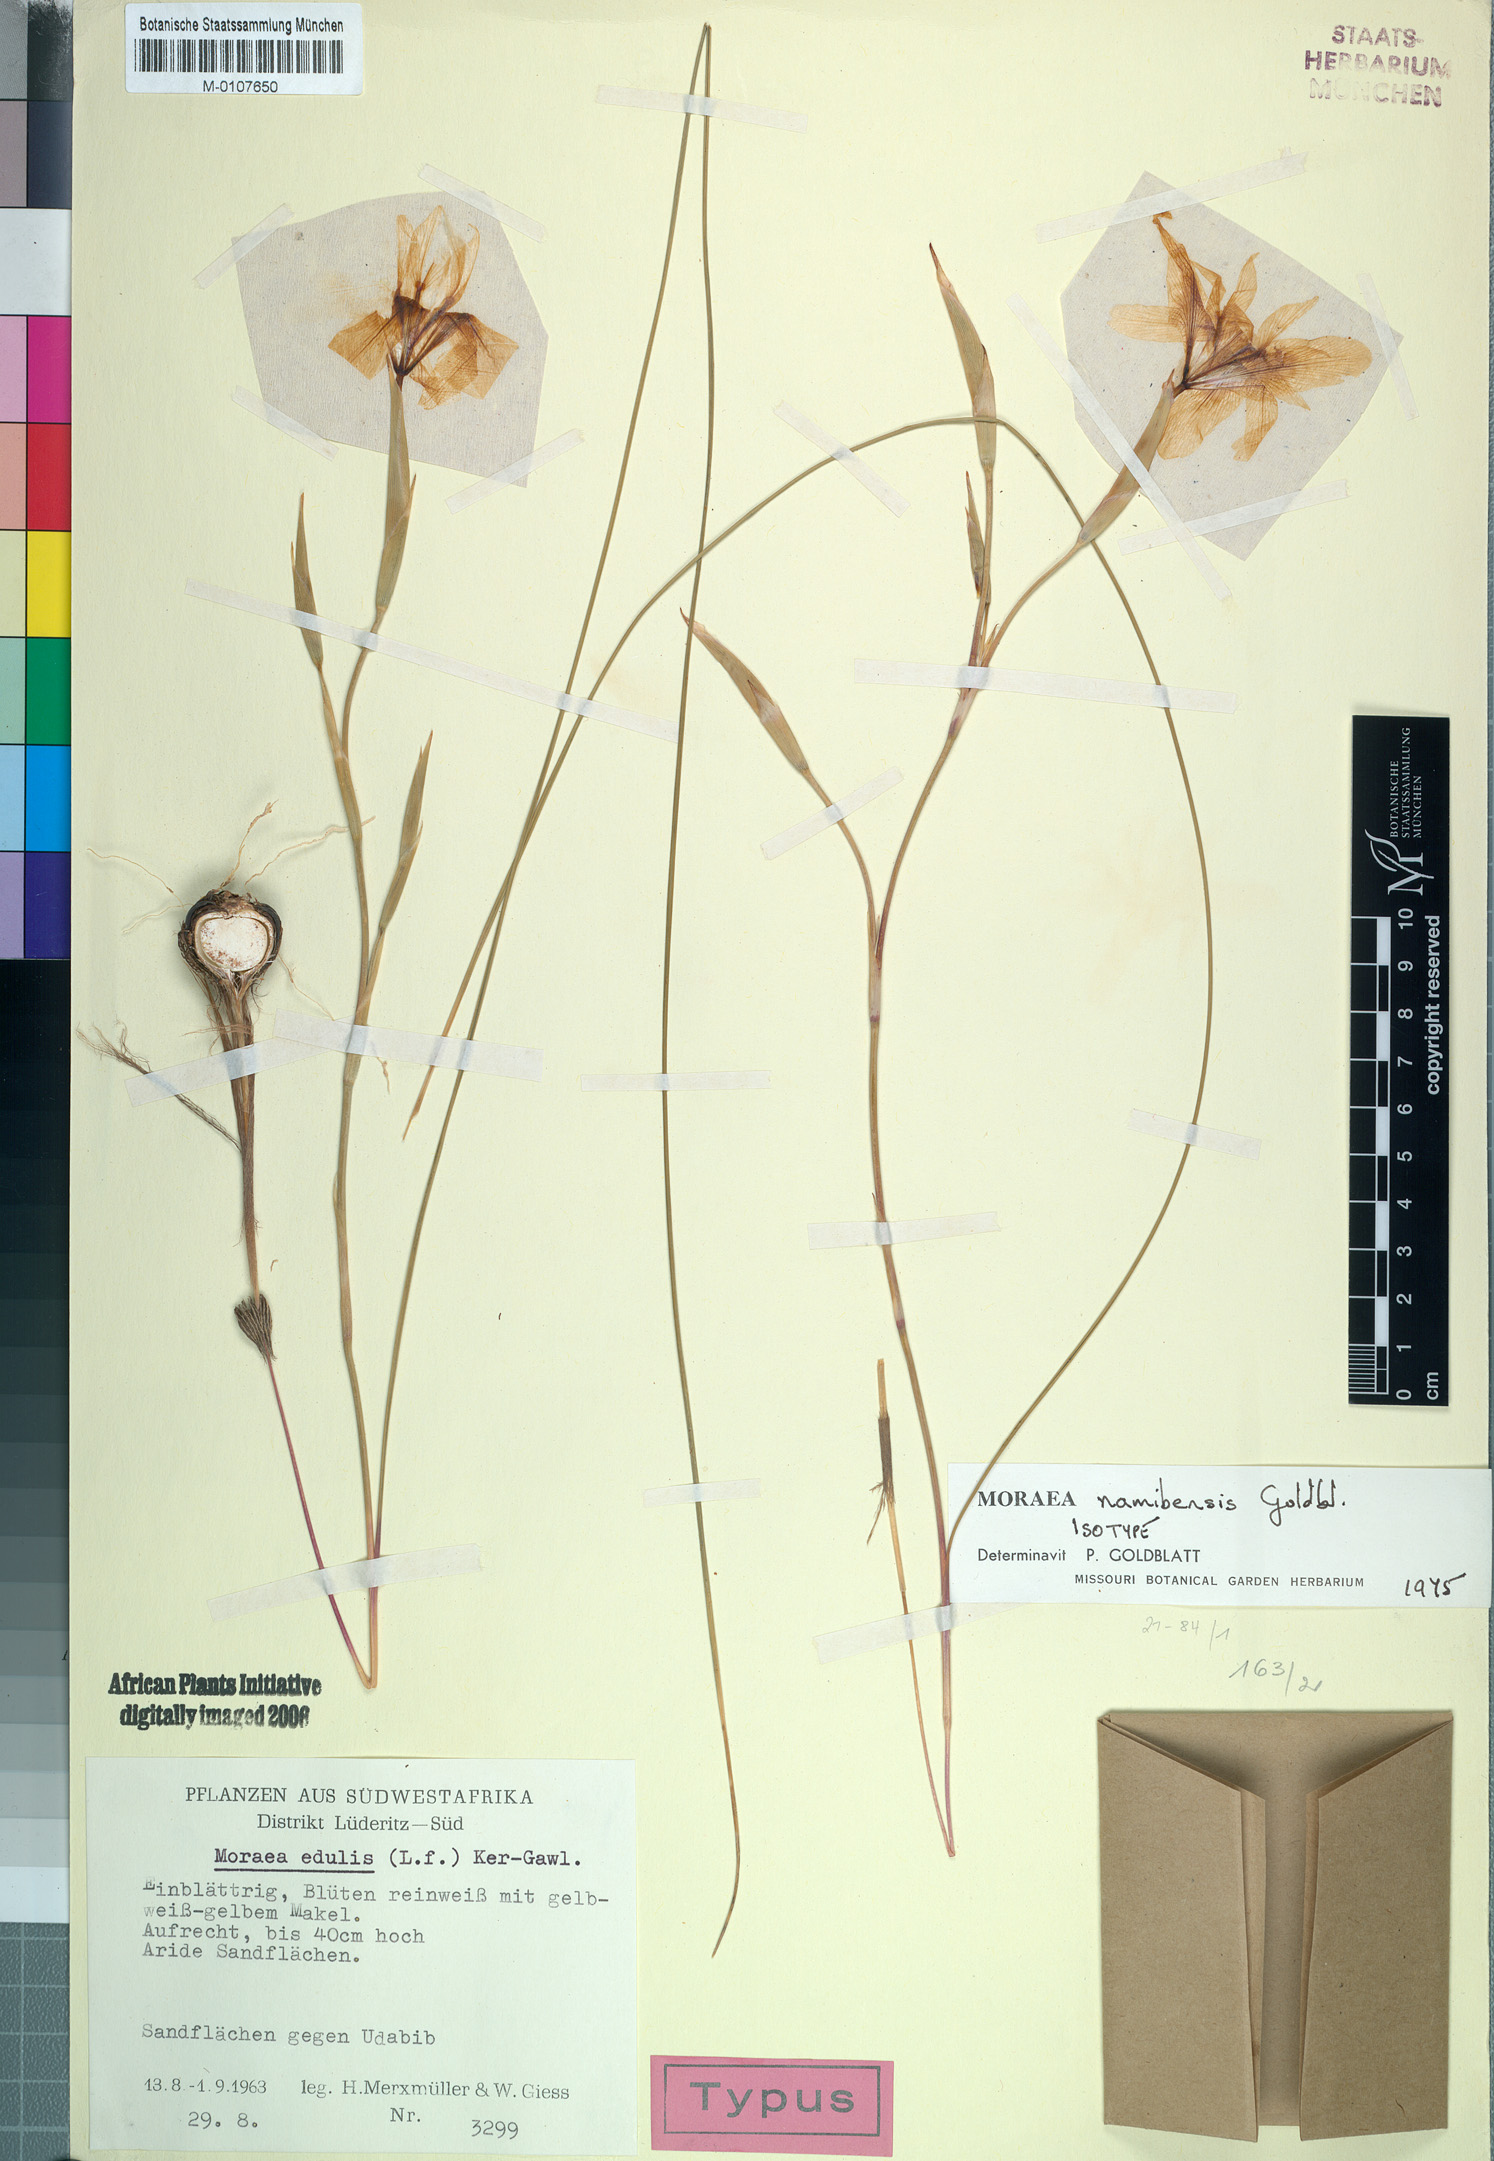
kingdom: Plantae
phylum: Tracheophyta
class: Liliopsida
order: Asparagales
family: Iridaceae
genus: Moraea
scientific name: Moraea namibensis
